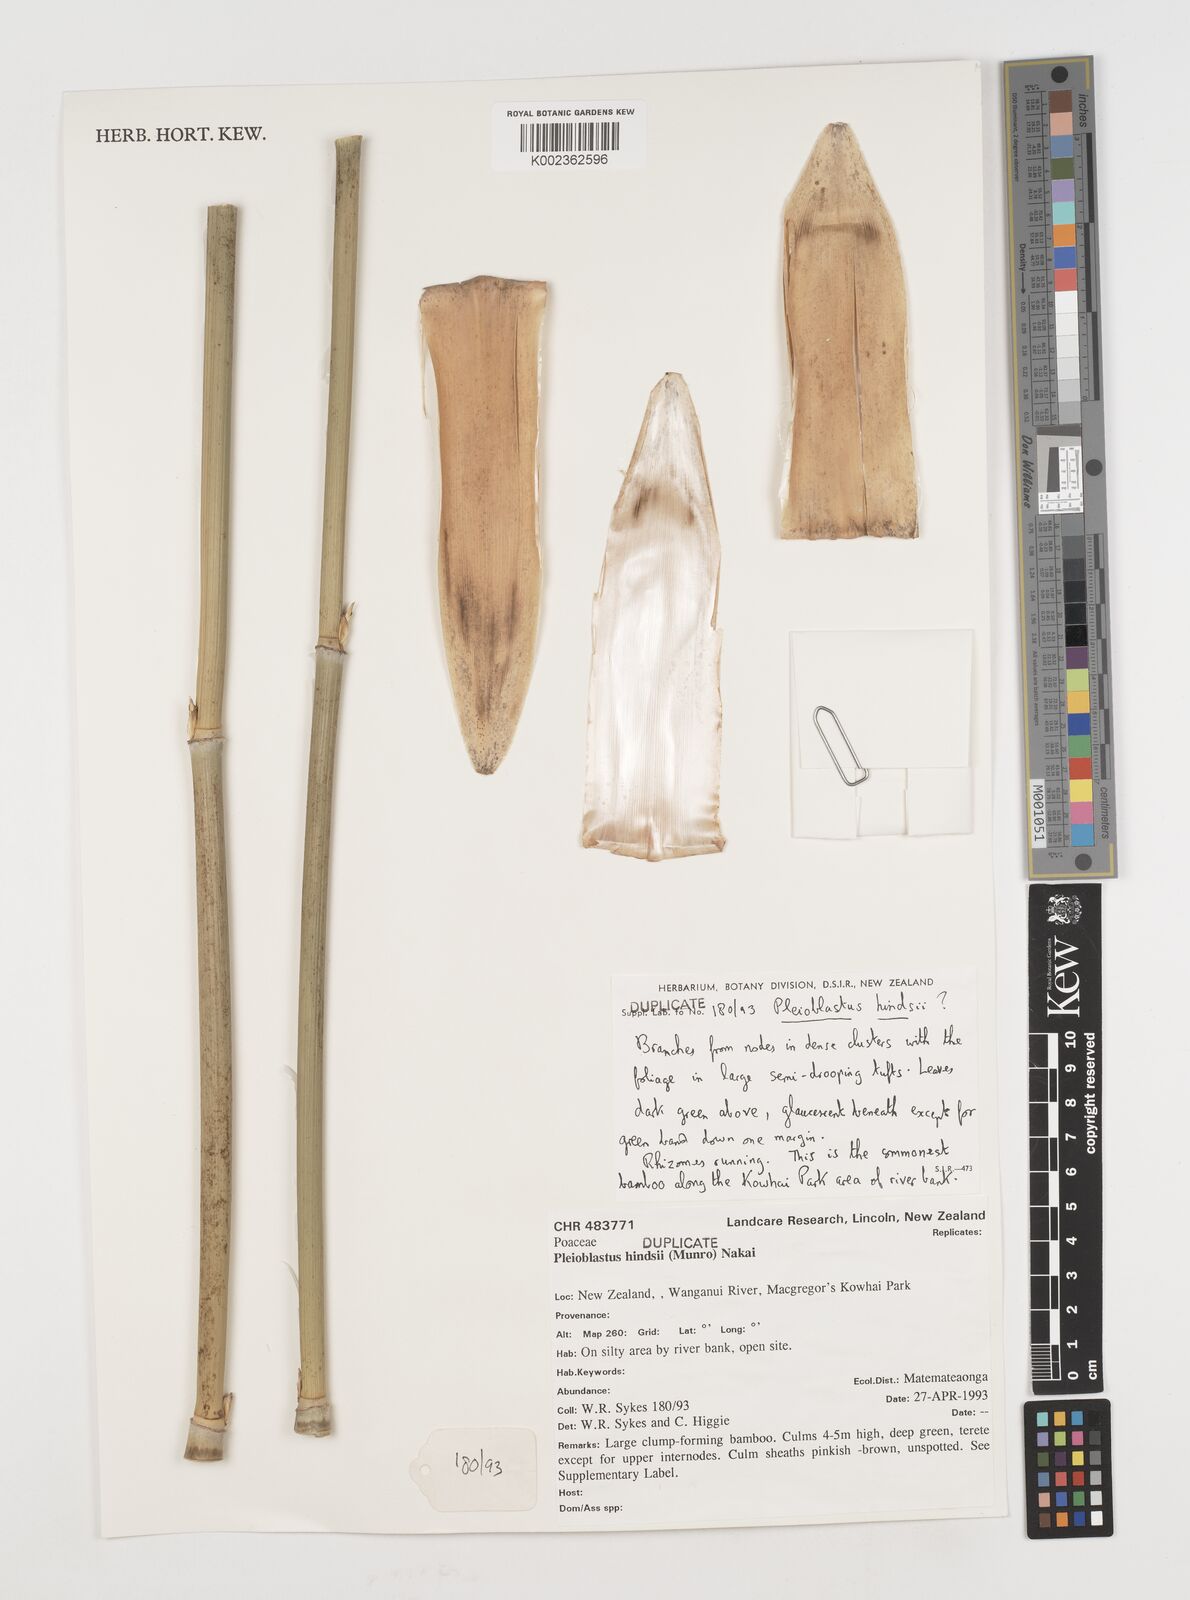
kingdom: Plantae
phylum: Tracheophyta
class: Liliopsida
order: Poales
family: Poaceae
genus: Pseudosasa
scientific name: Pseudosasa hindsii
